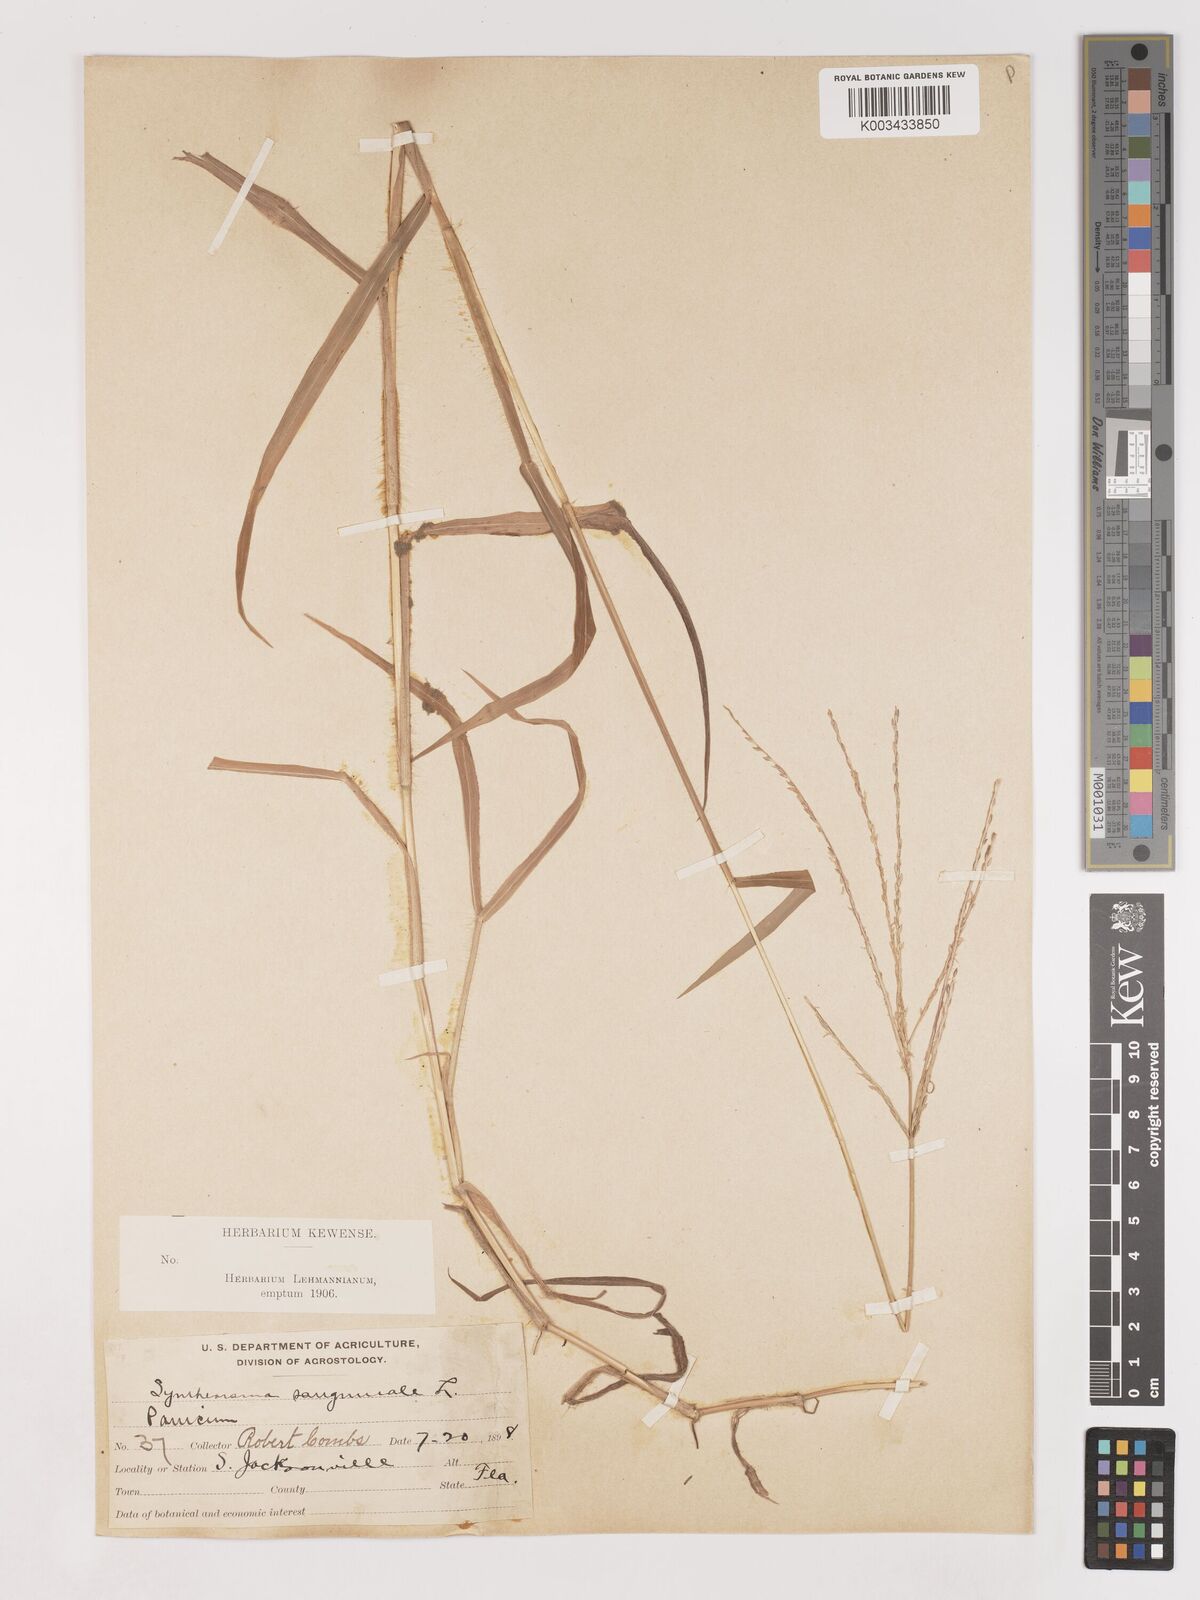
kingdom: Plantae
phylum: Tracheophyta
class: Liliopsida
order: Poales
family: Poaceae
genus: Digitaria
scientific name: Digitaria ciliaris
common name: Tropical finger-grass
